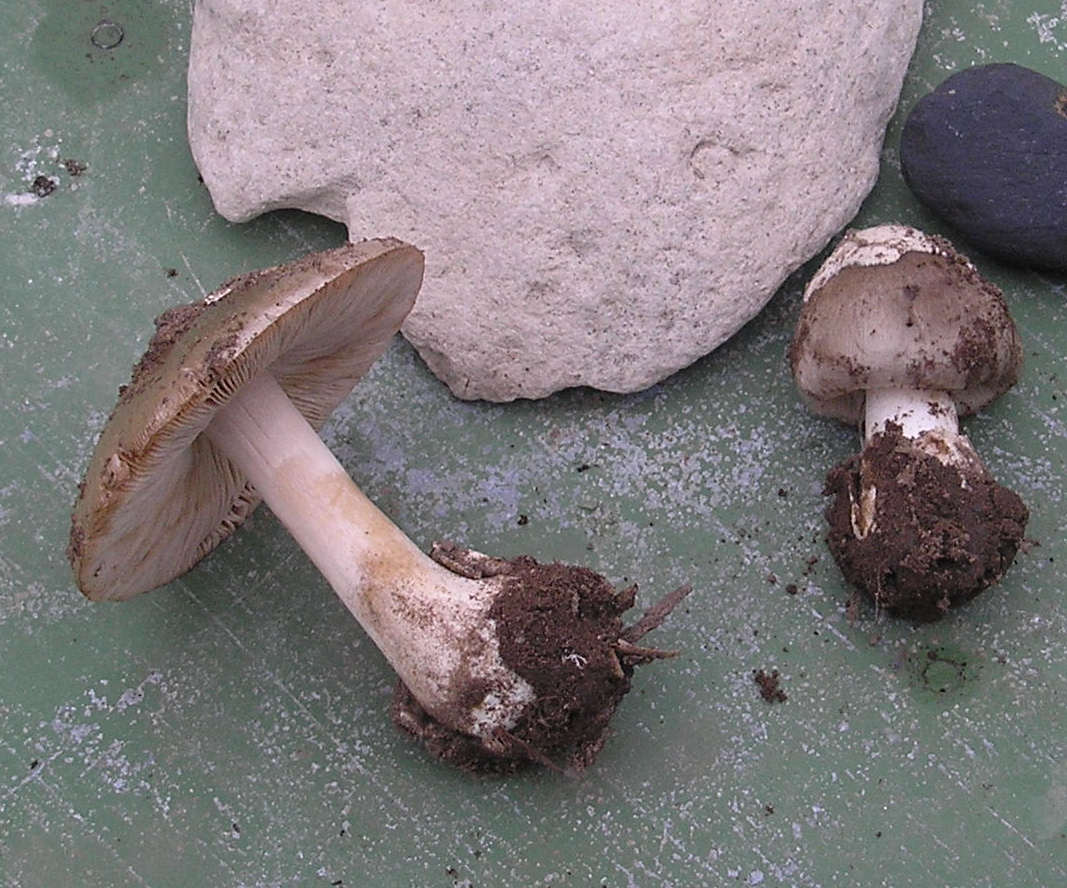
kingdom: Fungi
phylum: Basidiomycota
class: Agaricomycetes
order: Agaricales
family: Pluteaceae
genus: Volvopluteus
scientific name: Volvopluteus gloiocephalus
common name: høj posesvamp
